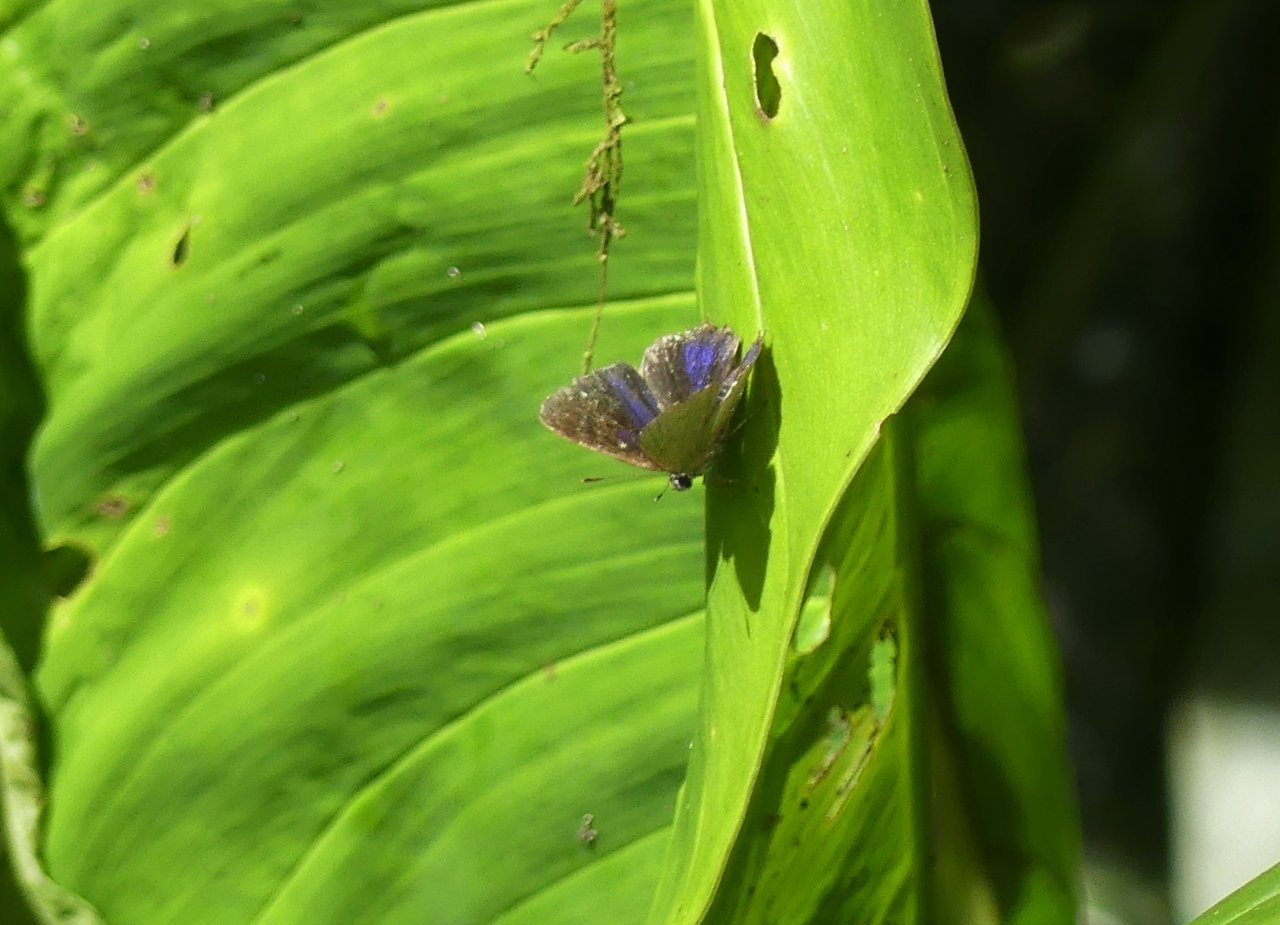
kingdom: Animalia
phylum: Arthropoda
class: Insecta
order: Lepidoptera
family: Lycaenidae
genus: Satyrium
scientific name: Satyrium
